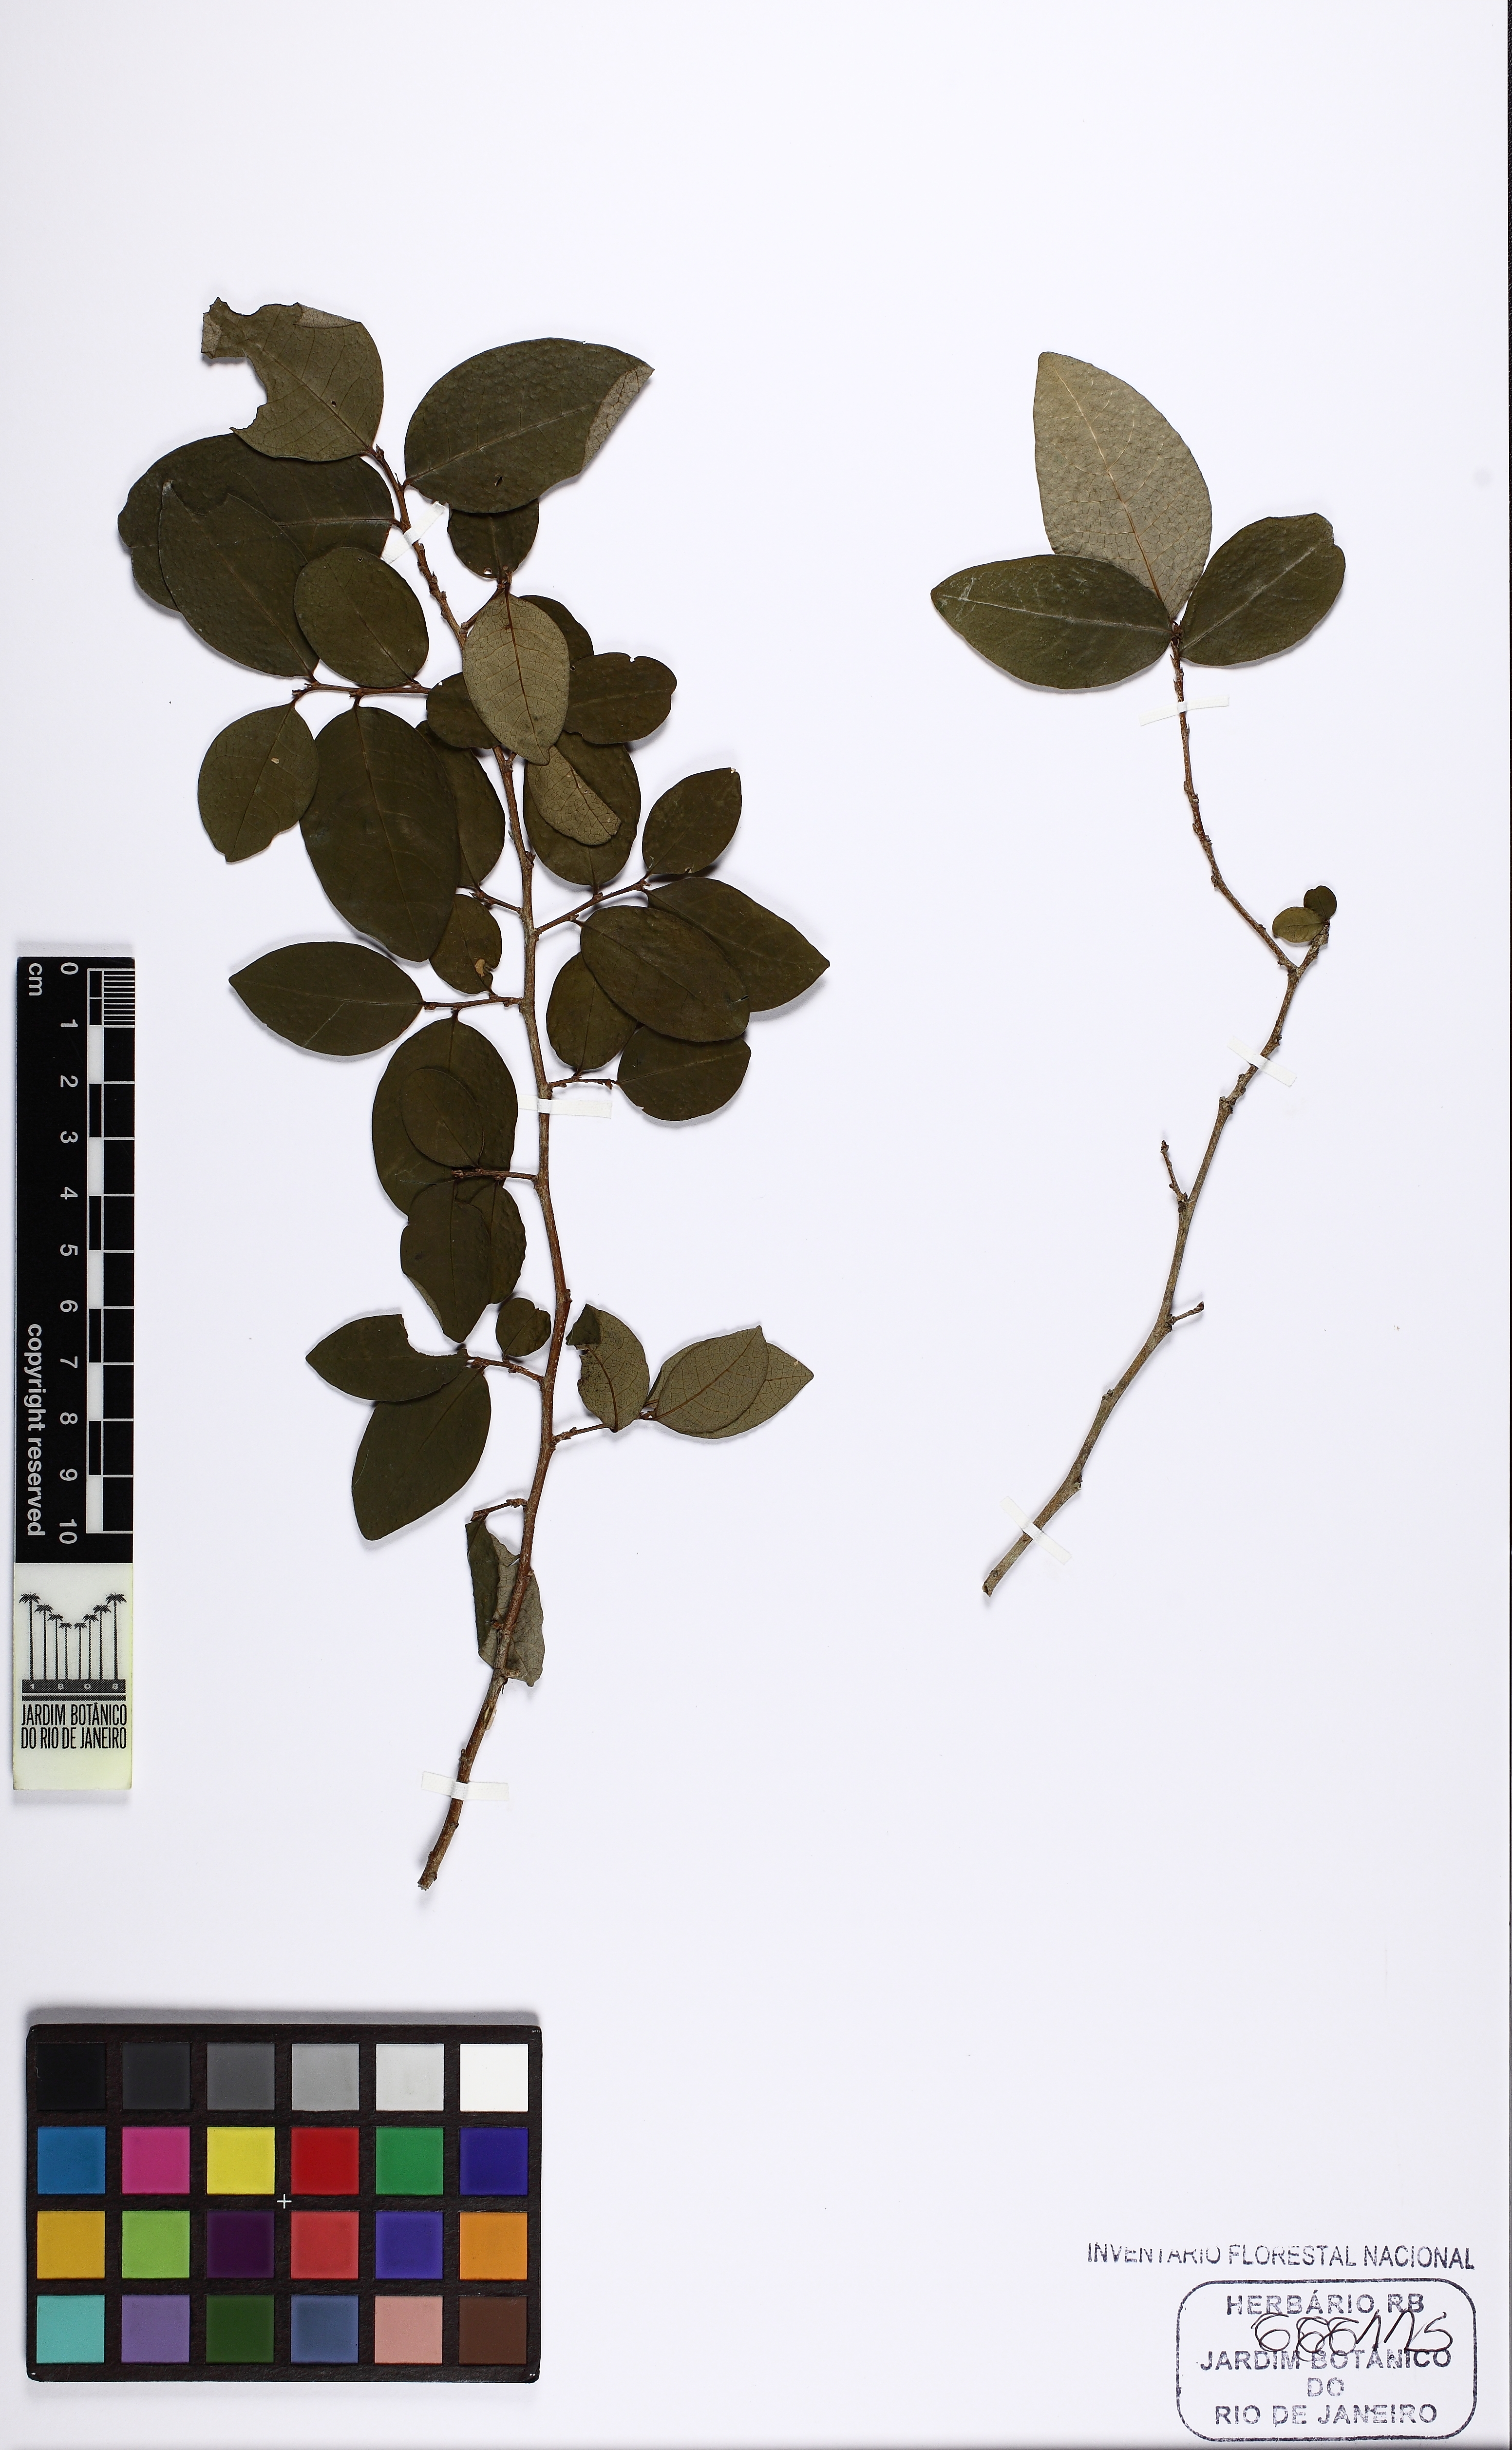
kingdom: Plantae
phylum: Tracheophyta
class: Magnoliopsida
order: Malpighiales
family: Phyllanthaceae
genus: Flueggea
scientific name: Flueggea schuechiana
